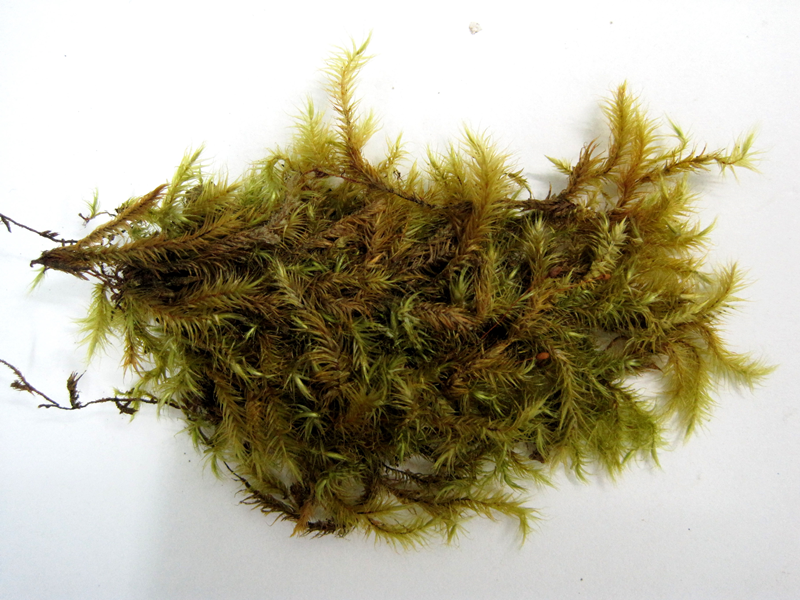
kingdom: Plantae
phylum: Bryophyta
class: Bryopsida
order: Hypnales
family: Myuriaceae
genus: Myurium
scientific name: Myurium
